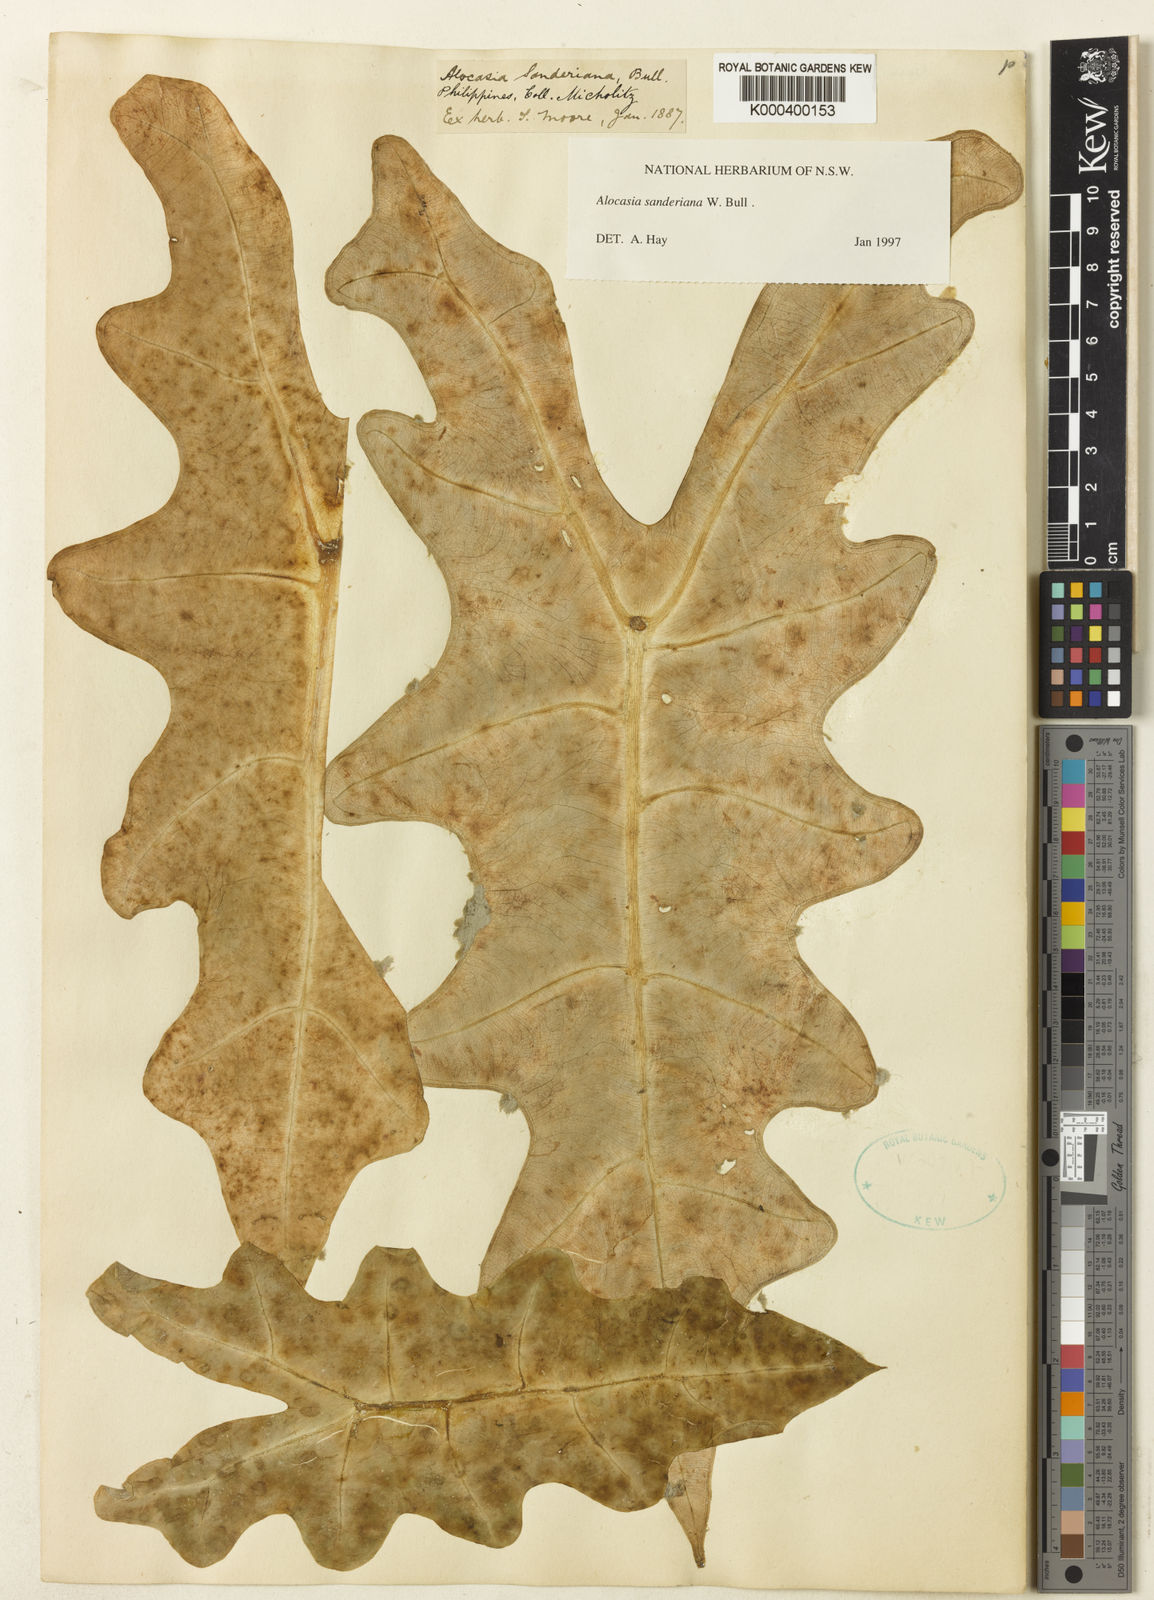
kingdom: Plantae
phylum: Tracheophyta
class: Liliopsida
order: Alismatales
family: Araceae
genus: Alocasia
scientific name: Alocasia sanderiana
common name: Sander's alocasia
